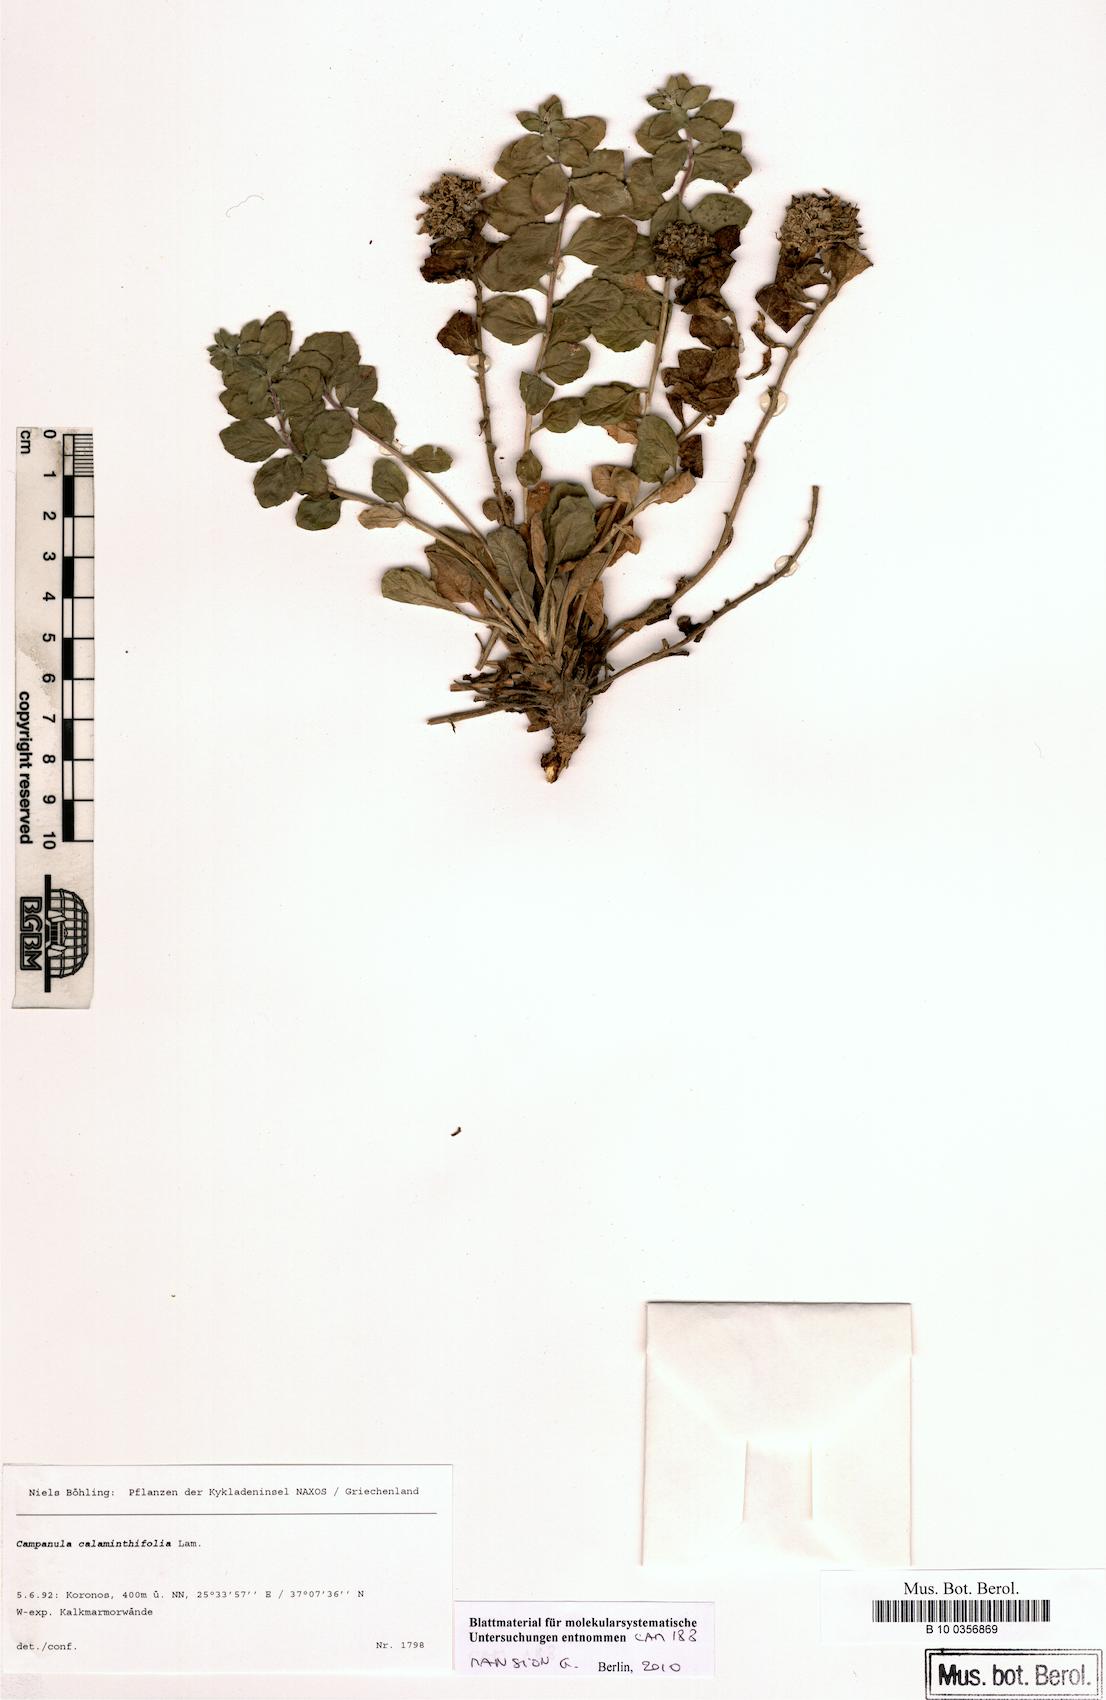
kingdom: Plantae
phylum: Tracheophyta
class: Magnoliopsida
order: Asterales
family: Campanulaceae
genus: Campanula
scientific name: Campanula calaminthifolia
